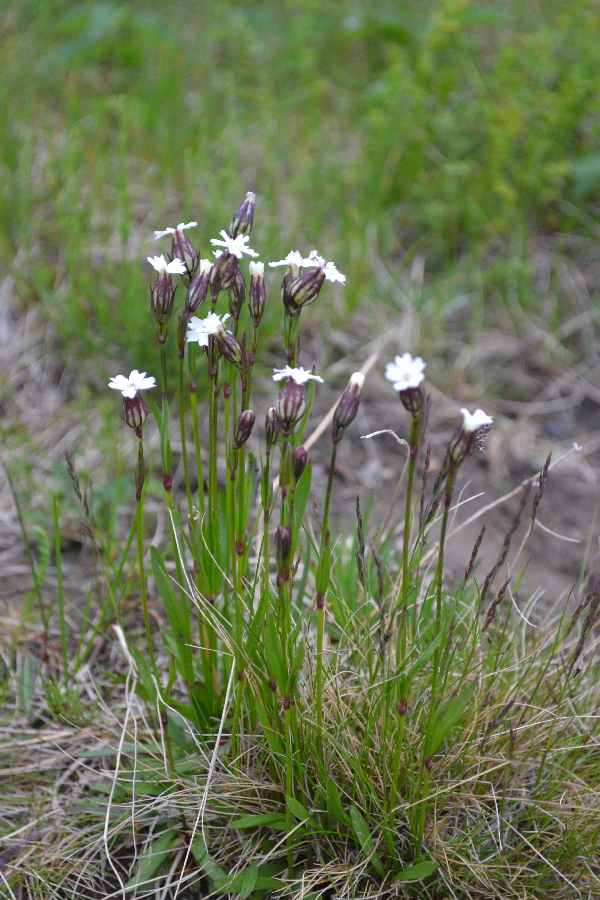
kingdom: Plantae
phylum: Tracheophyta
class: Magnoliopsida
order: Caryophyllales
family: Caryophyllaceae
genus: Silene
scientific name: Silene involucrata
